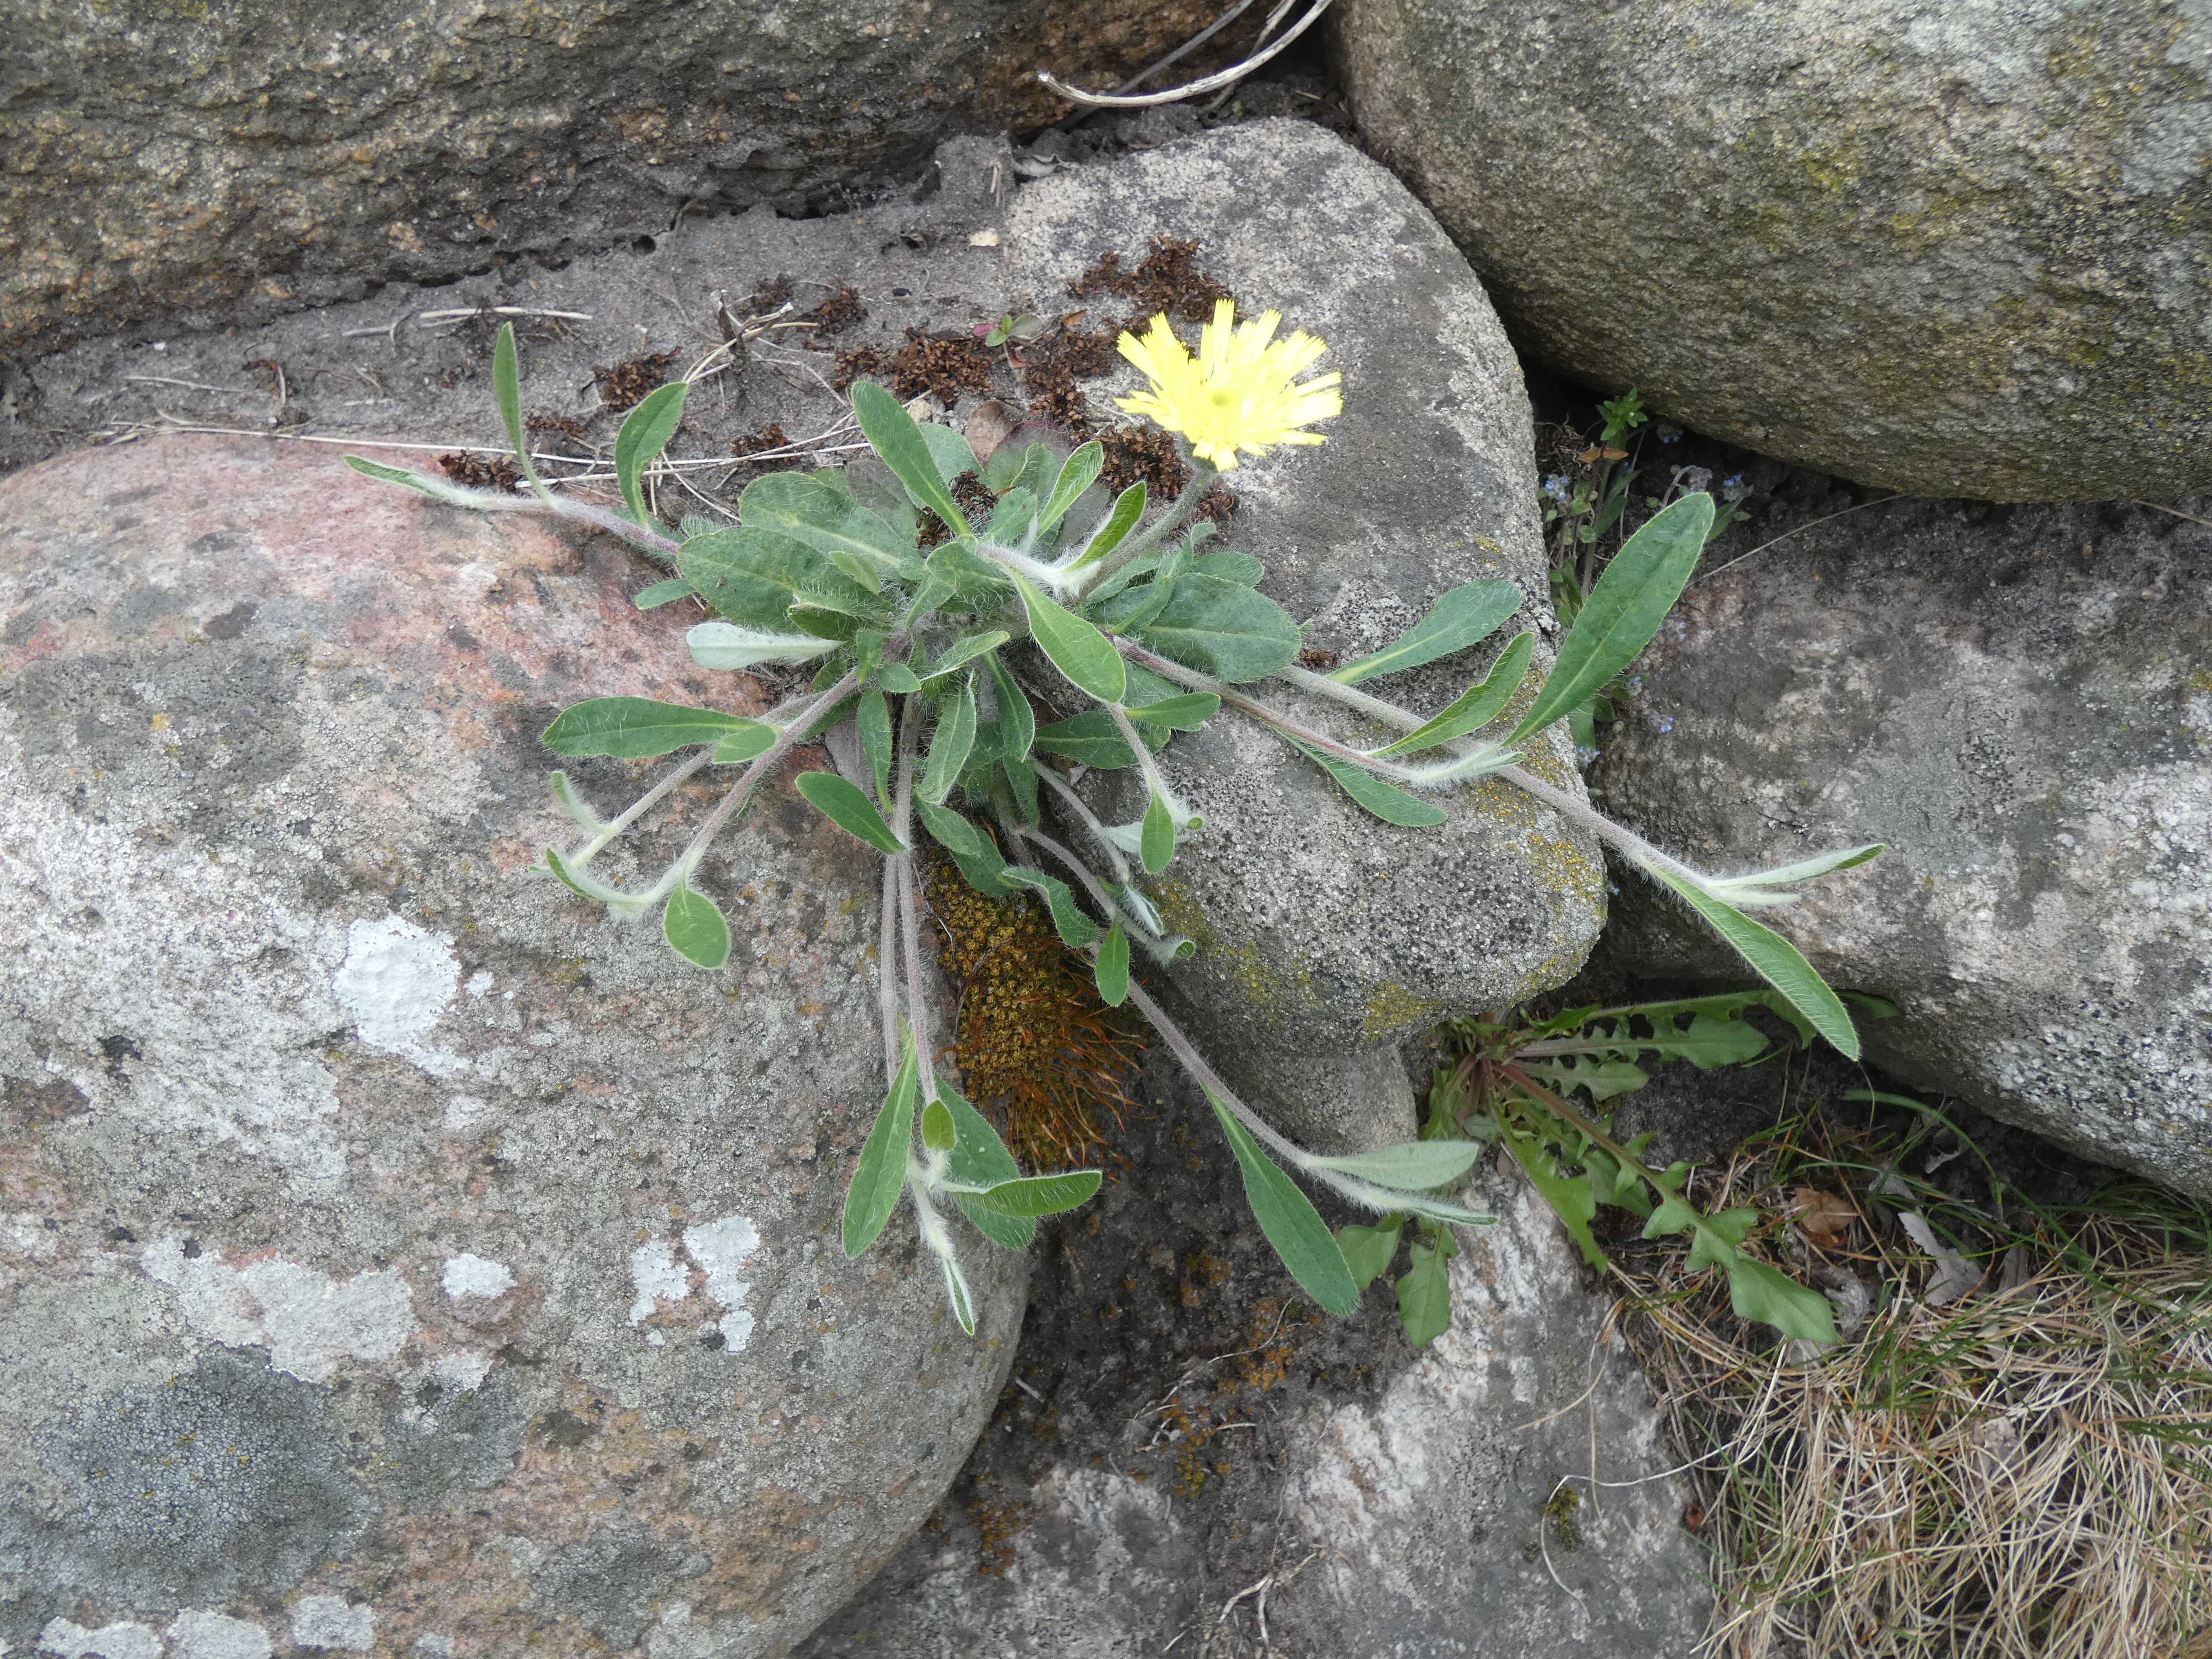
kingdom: Plantae
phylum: Tracheophyta
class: Magnoliopsida
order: Asterales
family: Asteraceae
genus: Pilosella
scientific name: Pilosella officinarum
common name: Håret høgeurt
